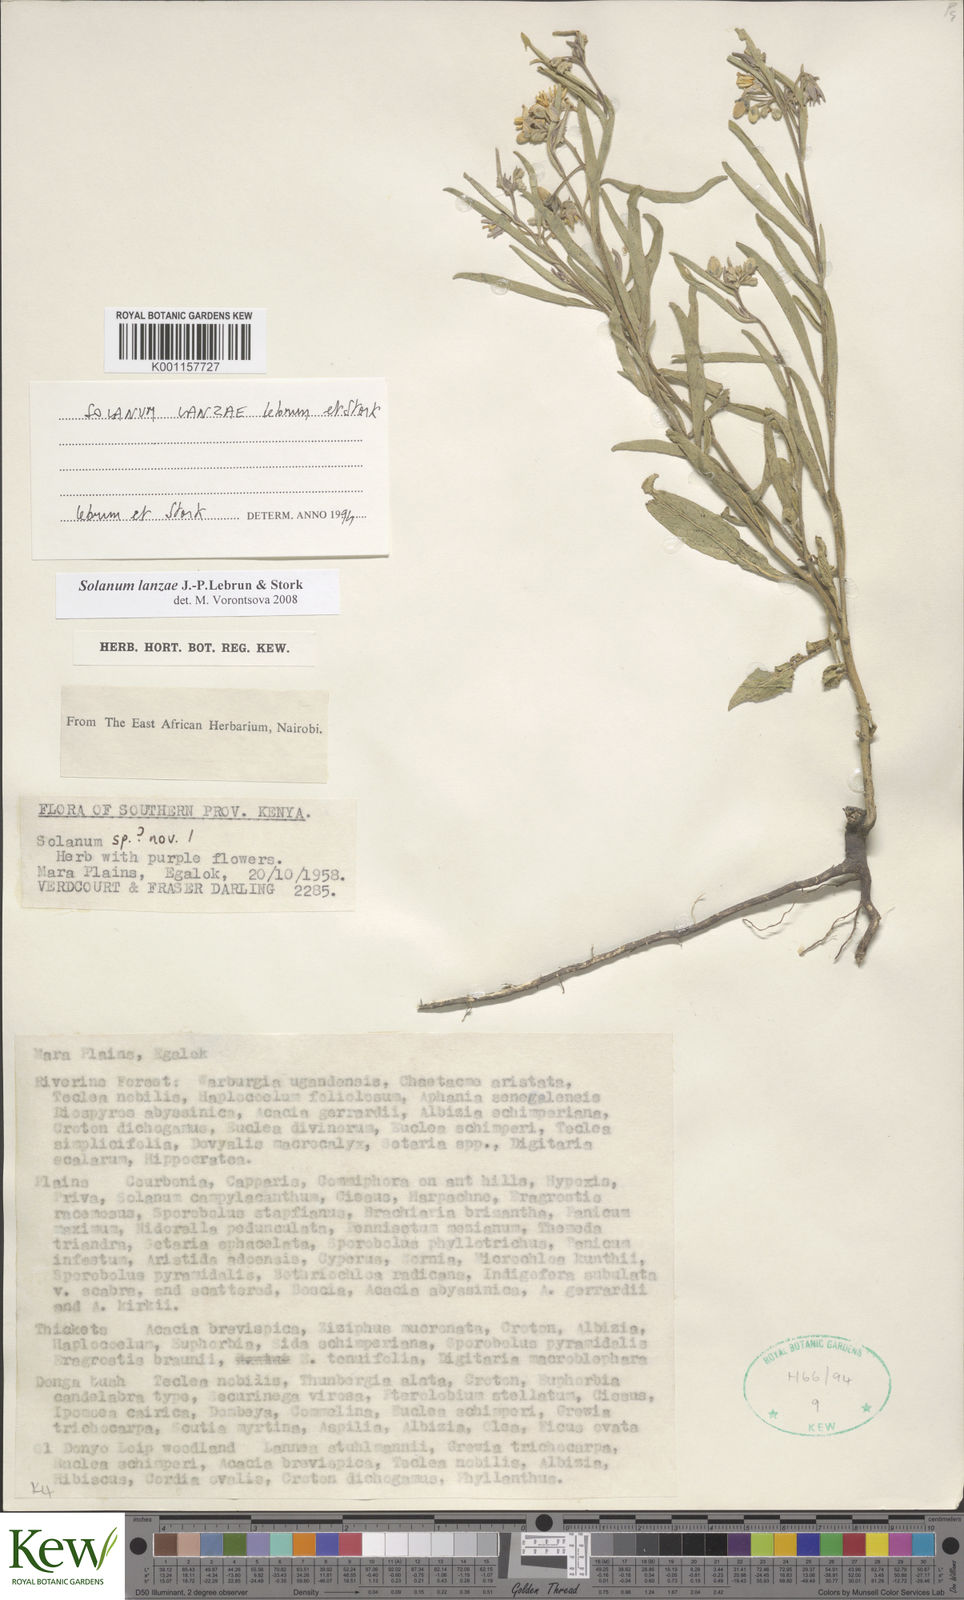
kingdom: Plantae
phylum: Tracheophyta
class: Magnoliopsida
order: Solanales
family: Solanaceae
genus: Solanum
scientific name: Solanum lanzae
